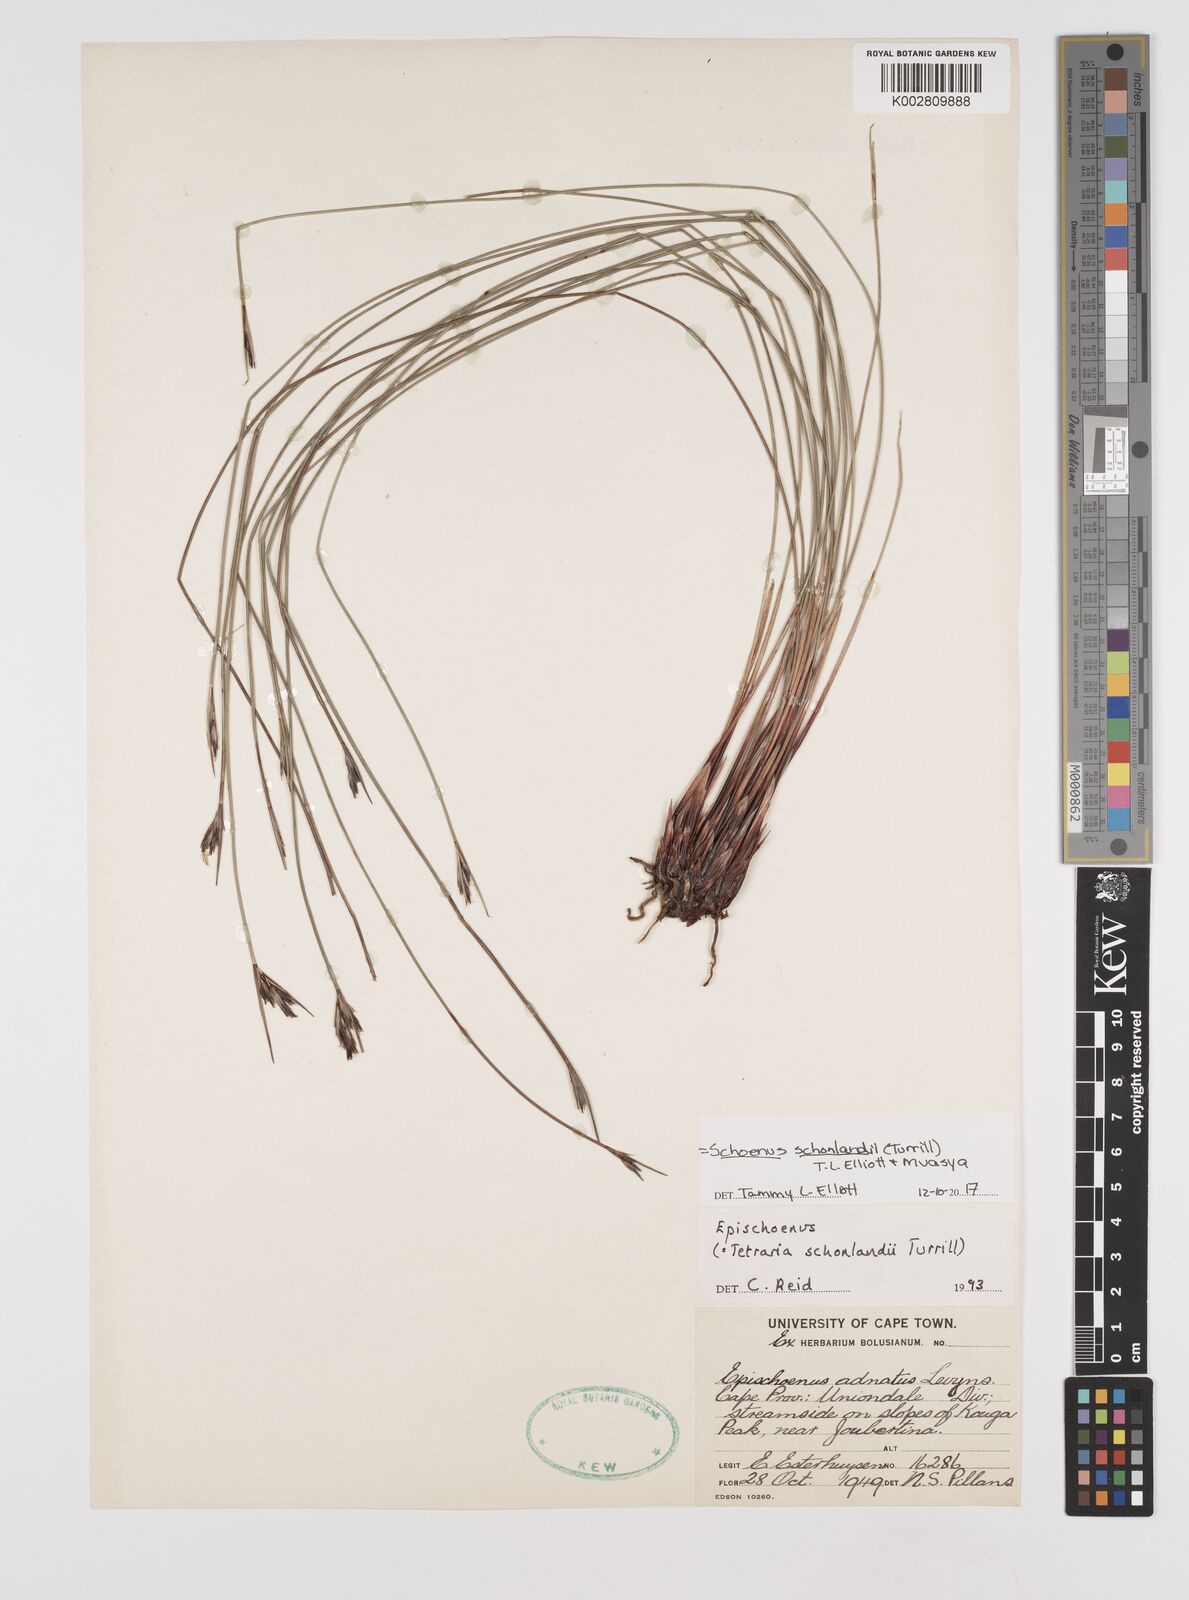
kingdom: Plantae
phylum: Tracheophyta
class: Liliopsida
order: Poales
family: Cyperaceae
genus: Schoenus
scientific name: Schoenus
